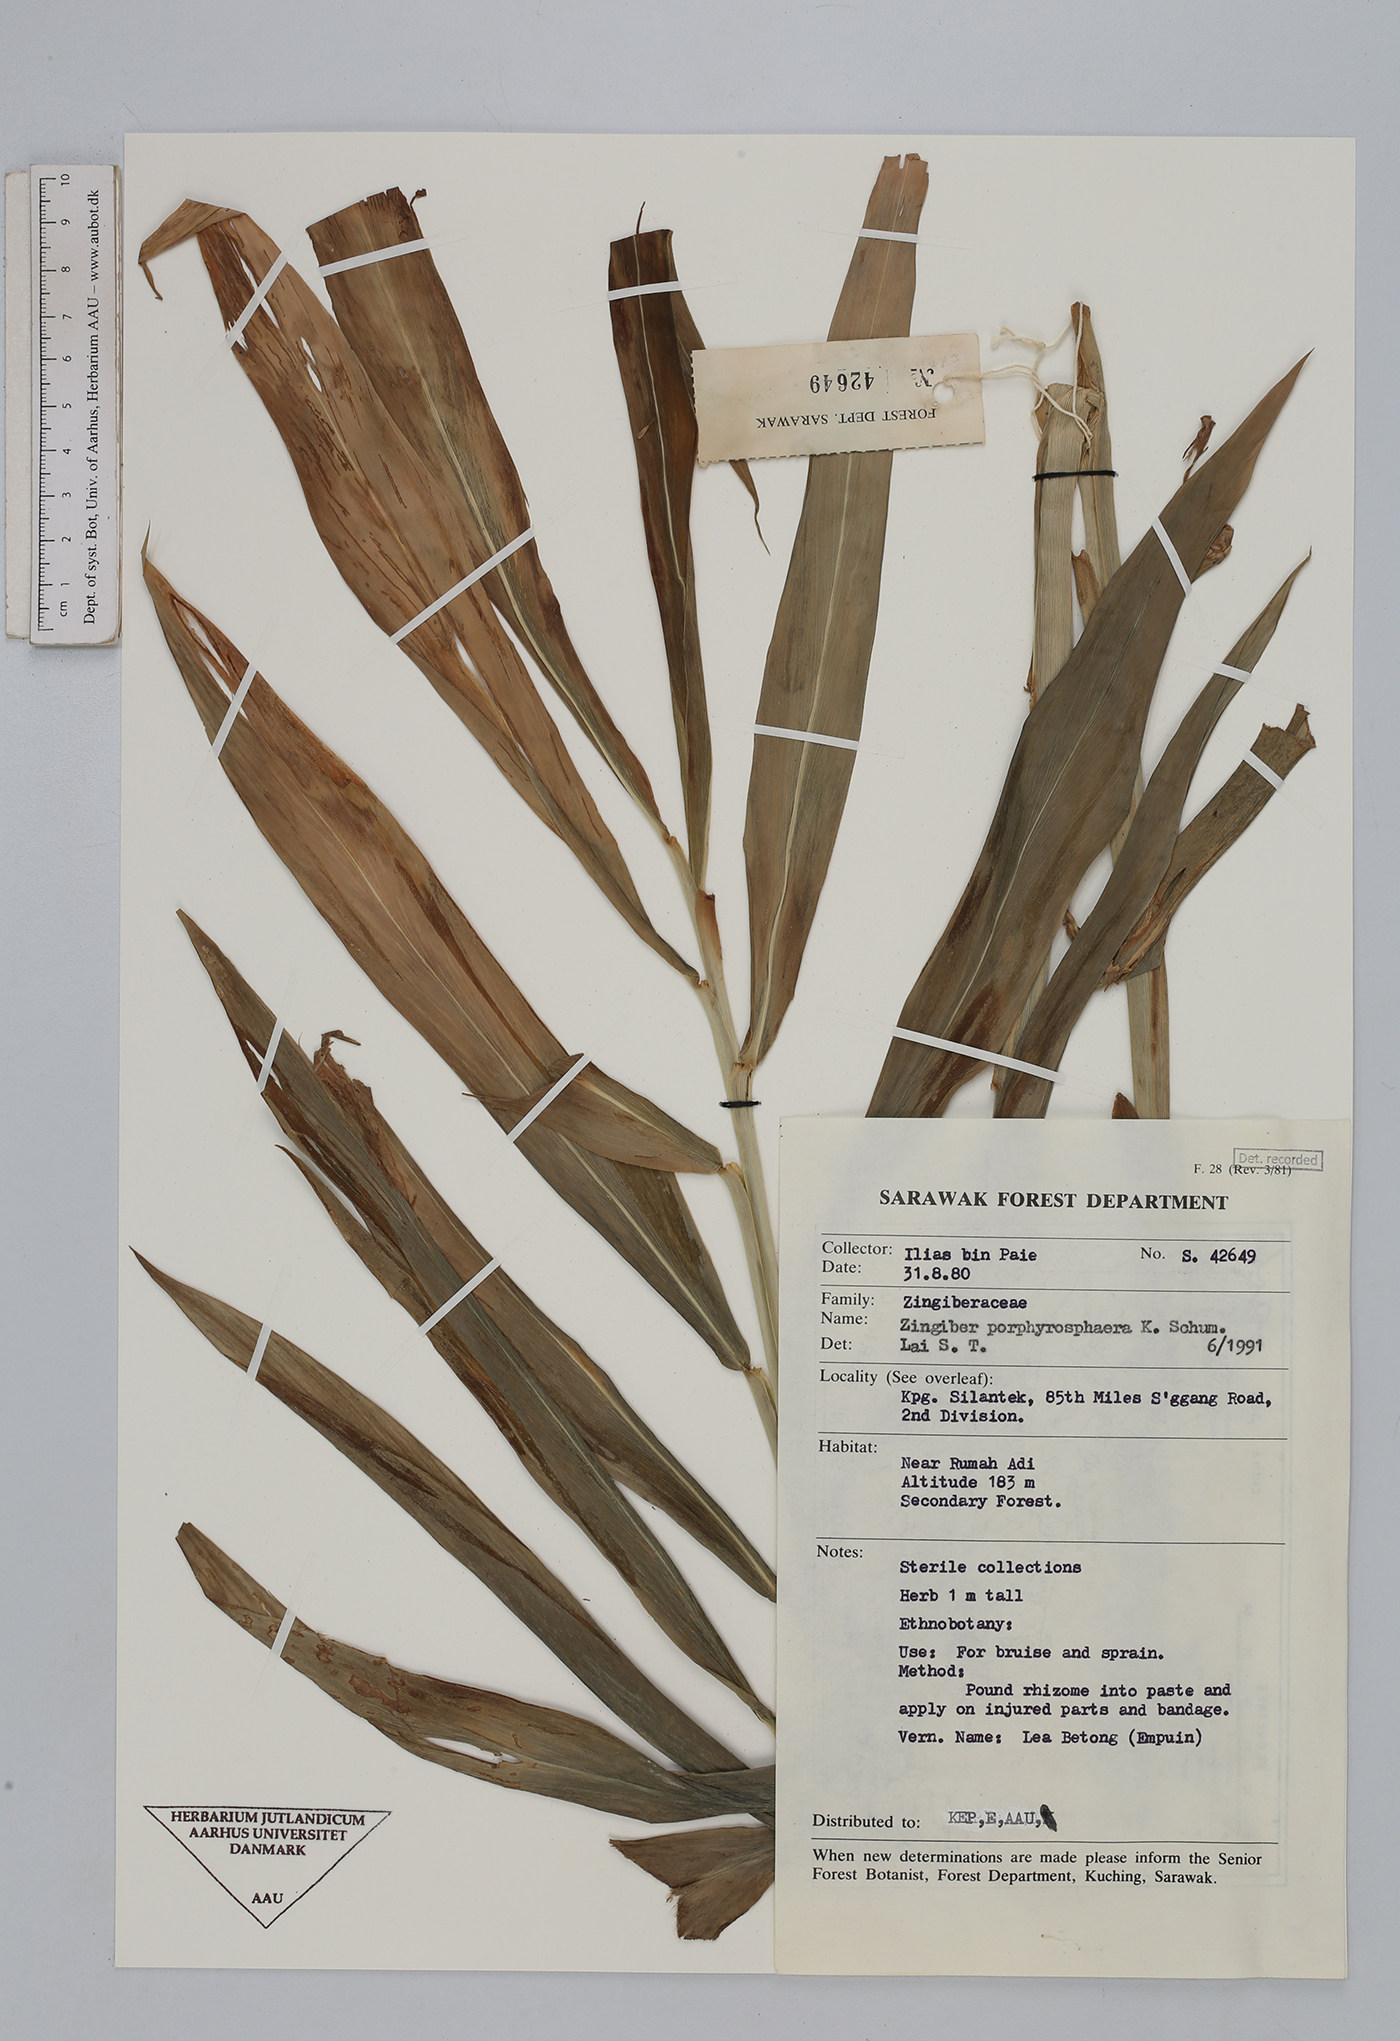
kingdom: Plantae
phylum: Tracheophyta
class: Liliopsida
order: Zingiberales
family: Zingiberaceae
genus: Zingiber
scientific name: Zingiber porphyrosphaerum
